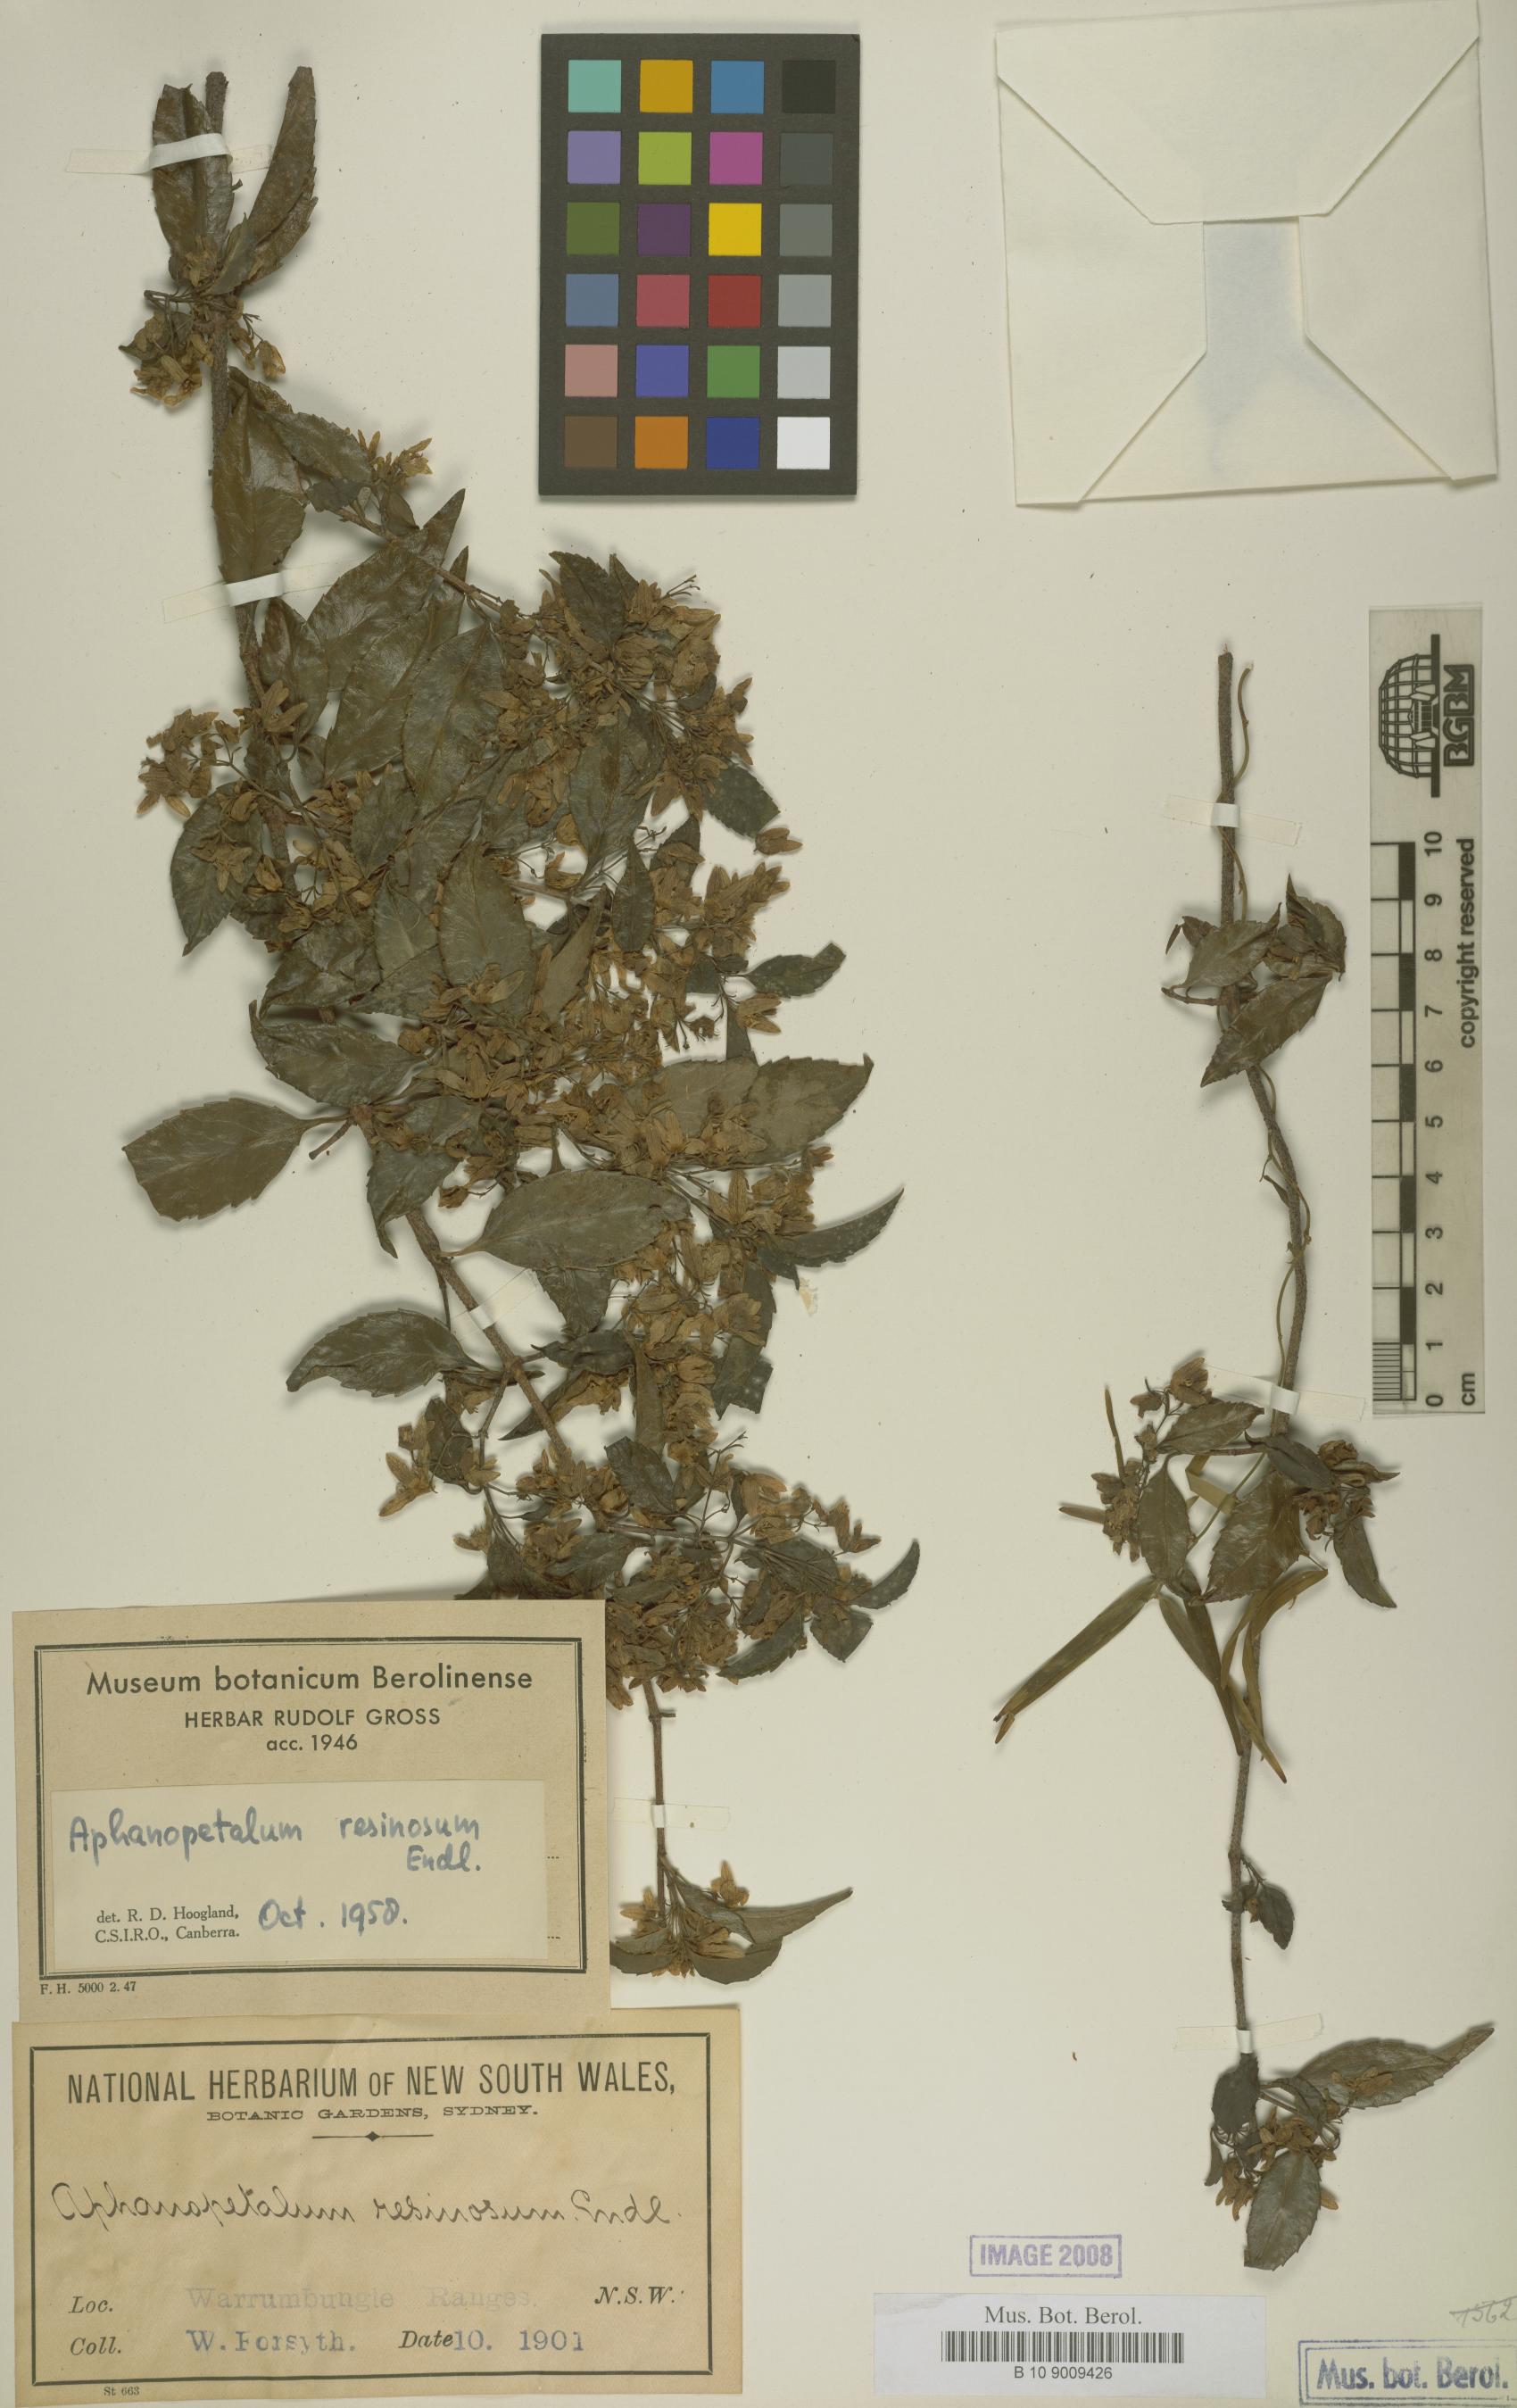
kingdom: Plantae
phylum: Tracheophyta
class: Magnoliopsida
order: Saxifragales
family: Aphanopetalaceae
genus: Aphanopetalum
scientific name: Aphanopetalum resinosum
